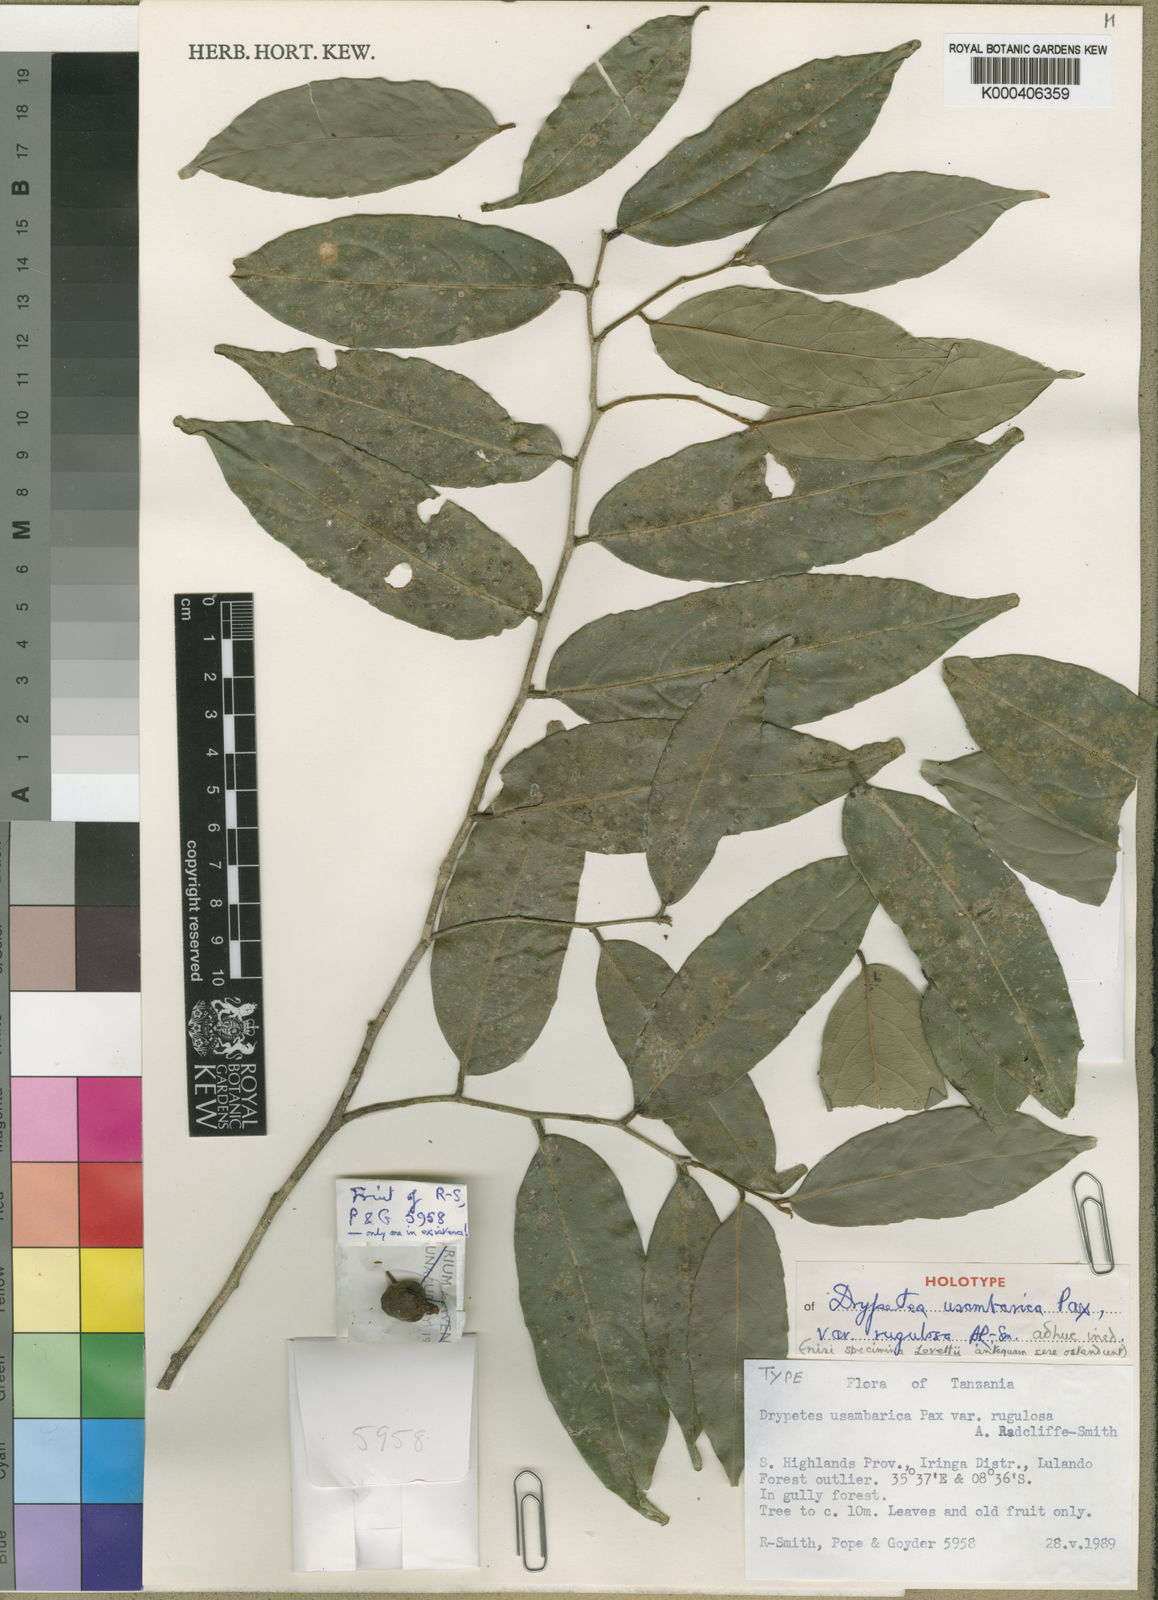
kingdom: Plantae
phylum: Tracheophyta
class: Magnoliopsida
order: Malpighiales
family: Putranjivaceae
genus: Drypetes
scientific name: Drypetes usambarica
